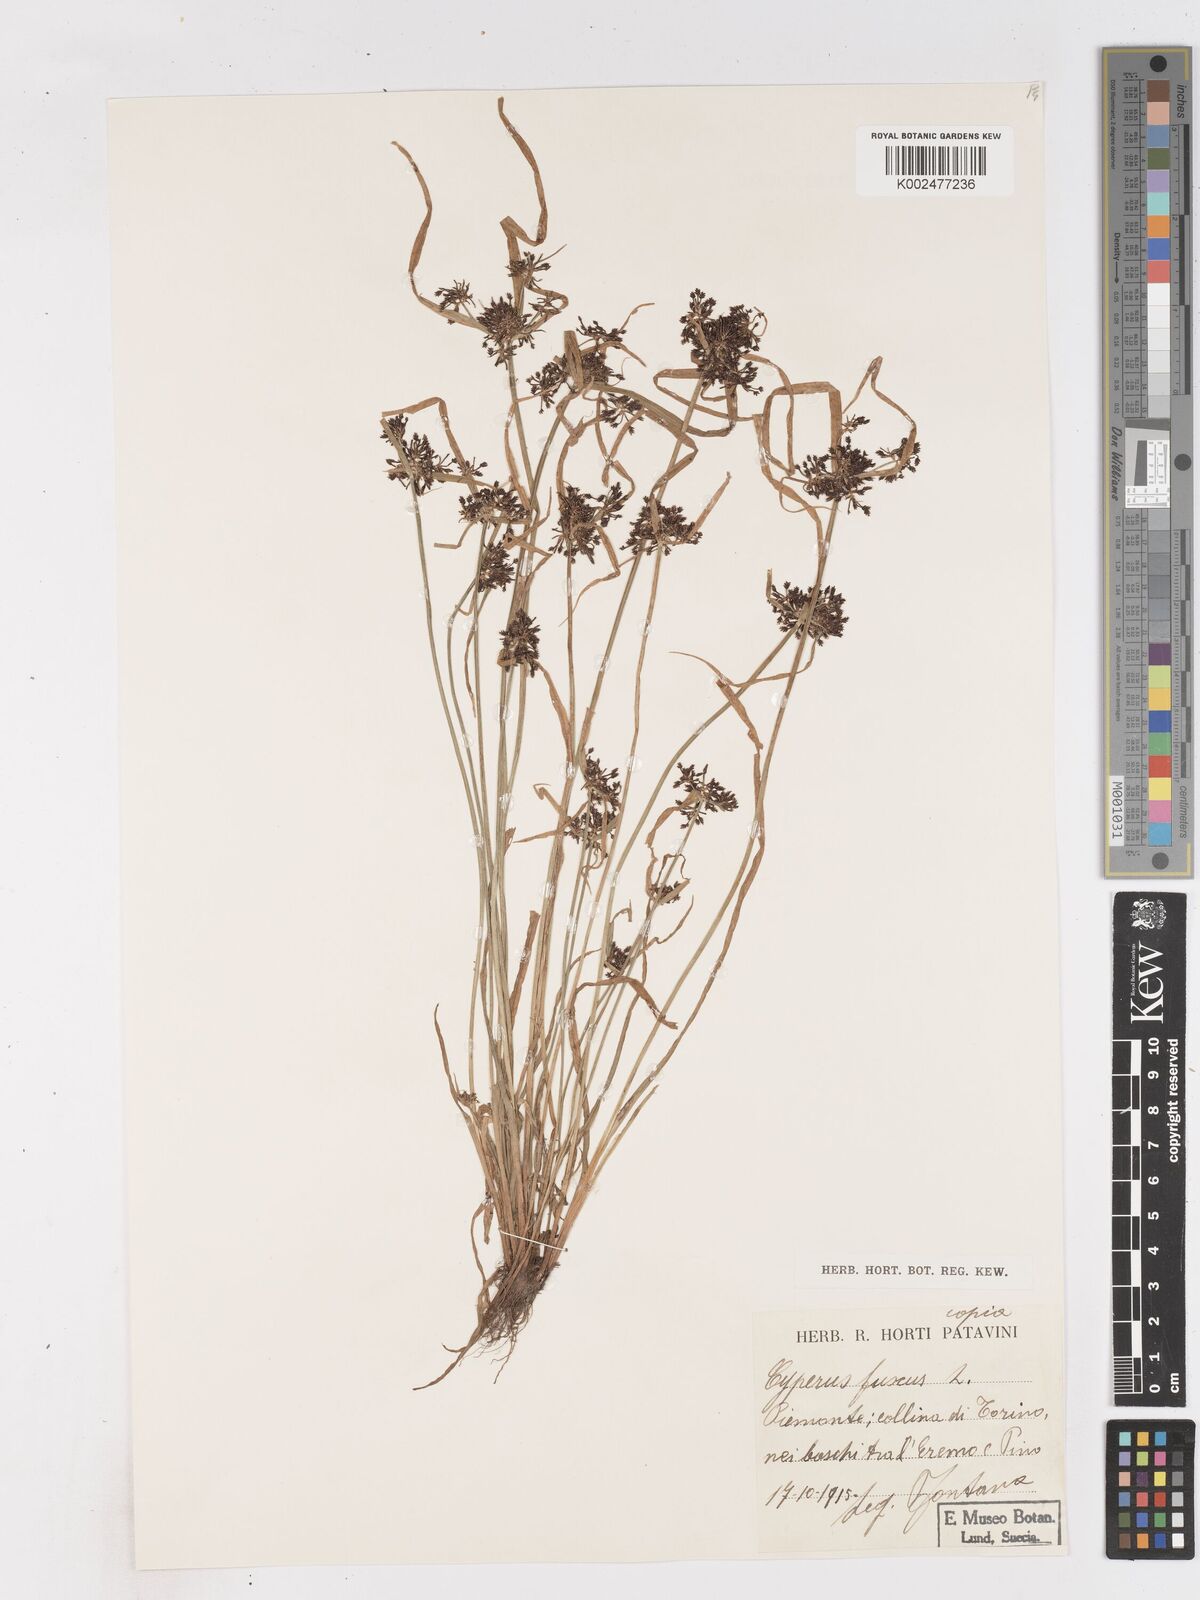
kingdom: Plantae
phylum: Tracheophyta
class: Liliopsida
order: Poales
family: Cyperaceae
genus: Cyperus
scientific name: Cyperus fuscus
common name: Brown galingale
